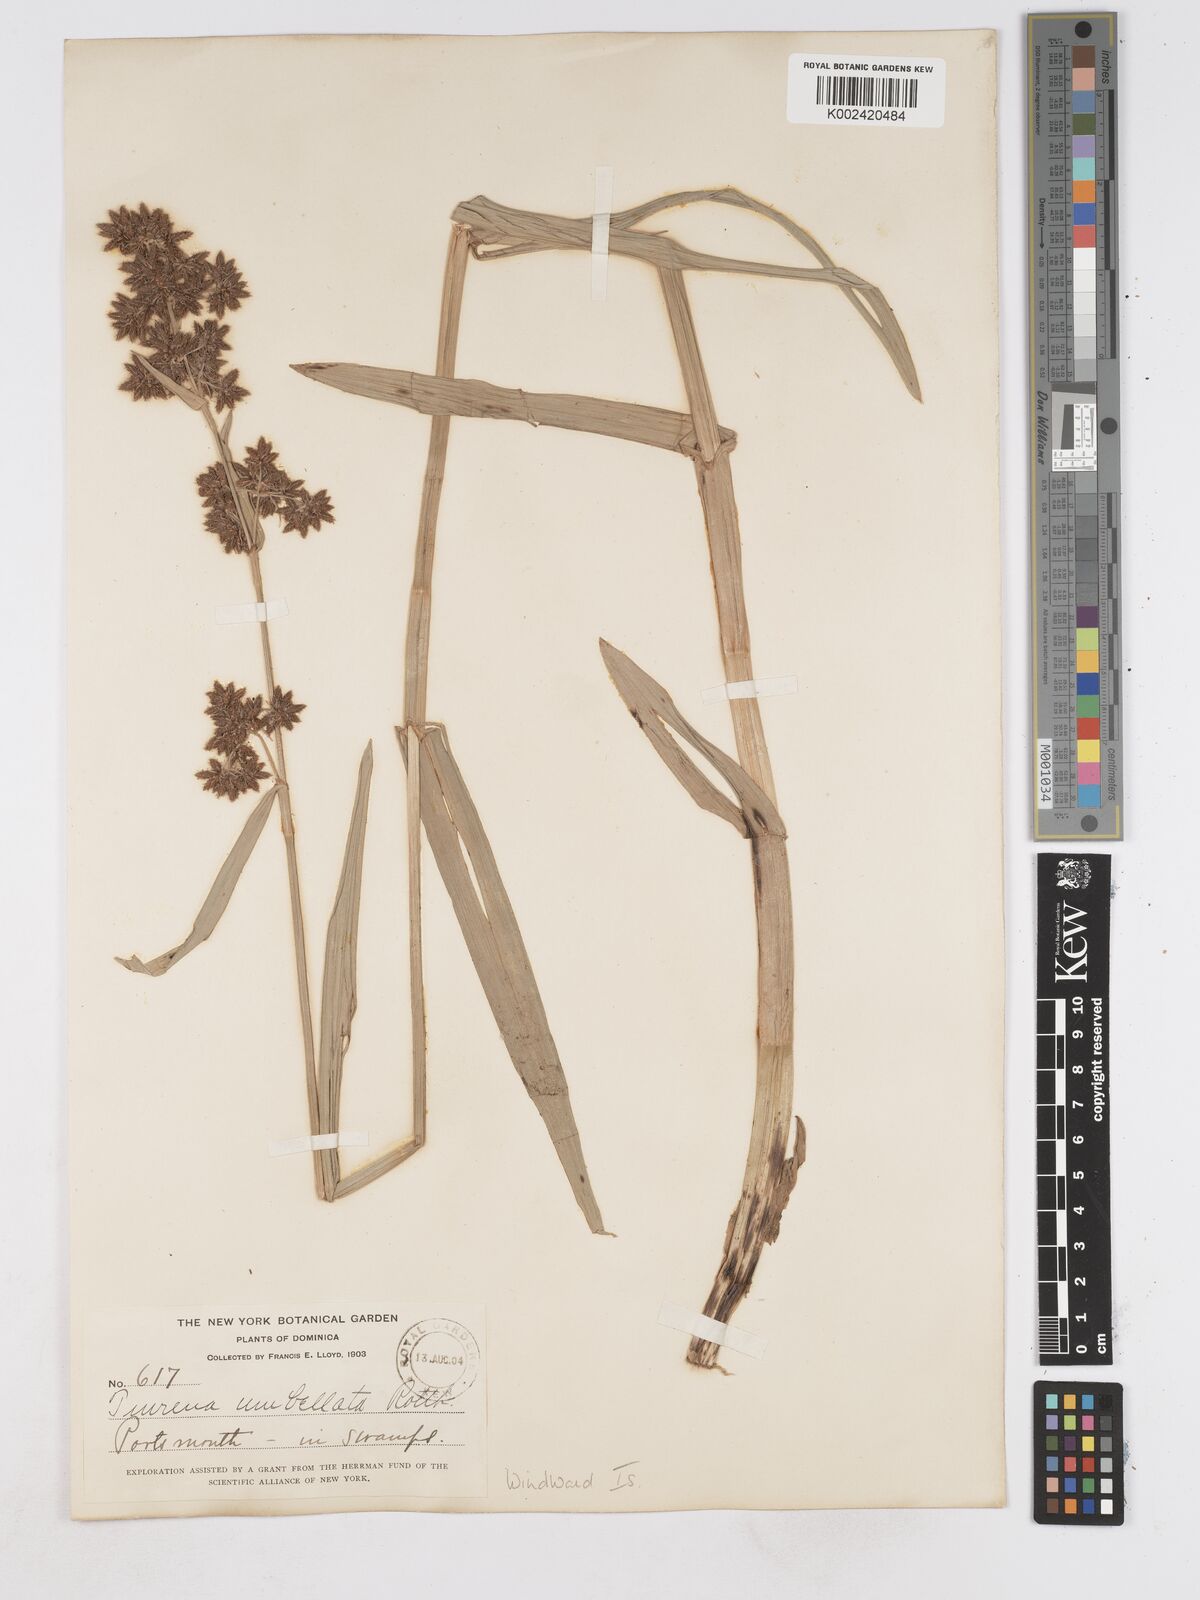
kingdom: Plantae
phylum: Tracheophyta
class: Liliopsida
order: Poales
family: Cyperaceae
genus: Fuirena
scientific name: Fuirena umbellata
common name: Yefen
